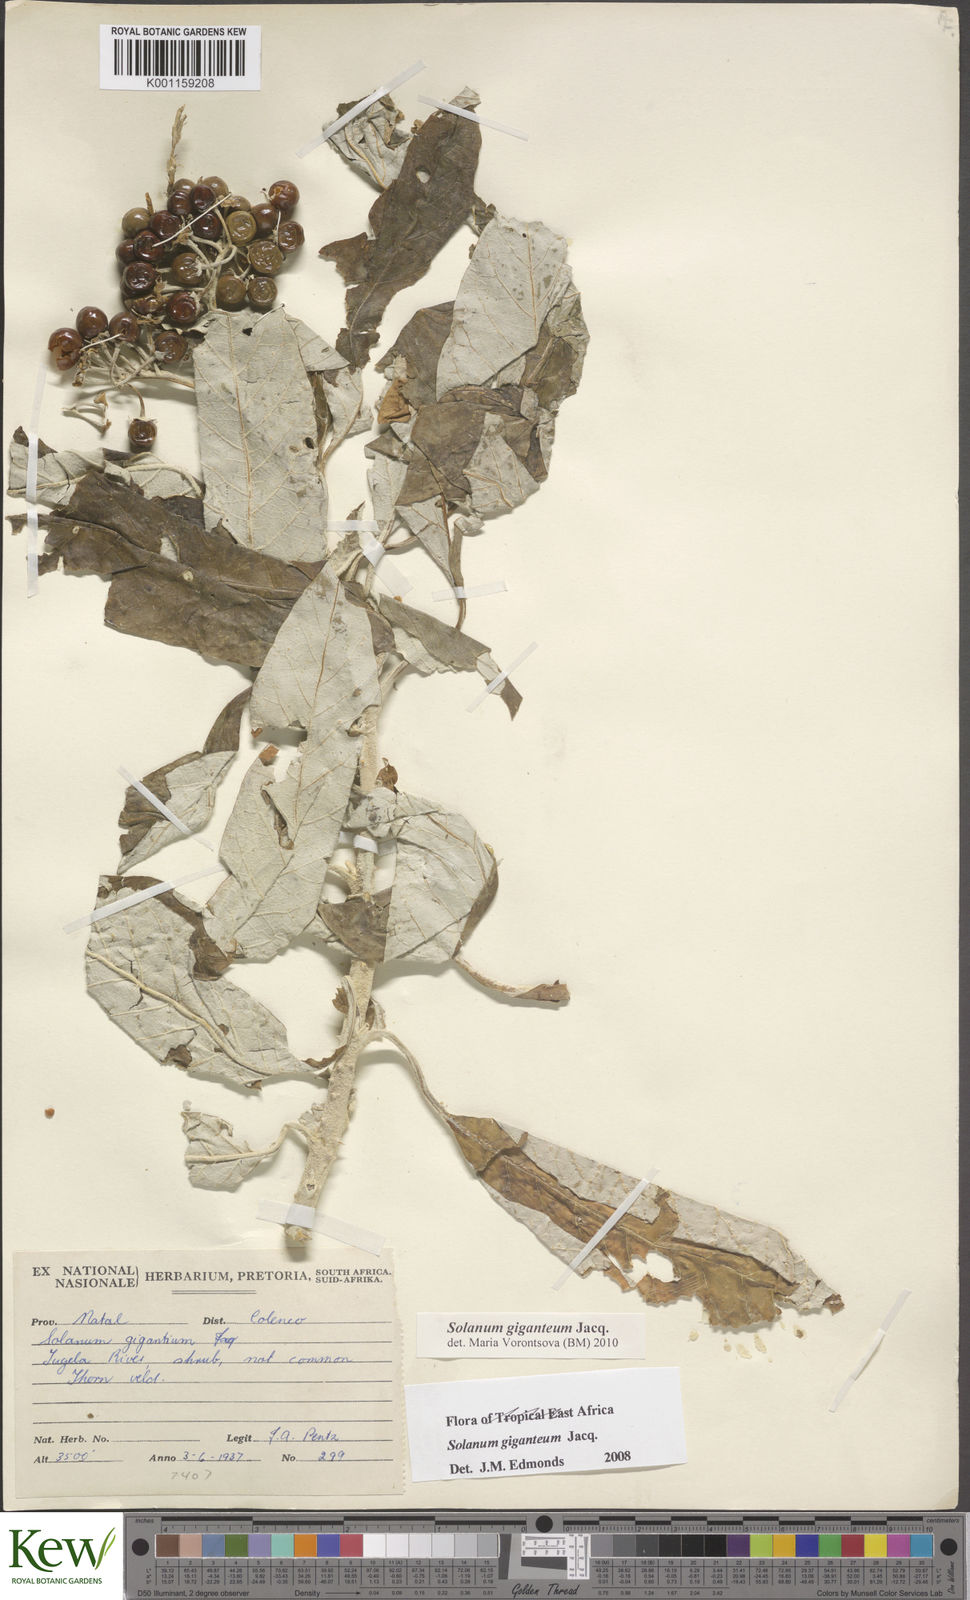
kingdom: Plantae
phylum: Tracheophyta
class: Magnoliopsida
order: Solanales
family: Solanaceae
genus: Solanum
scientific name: Solanum giganteum
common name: Healing-leaf-tree
